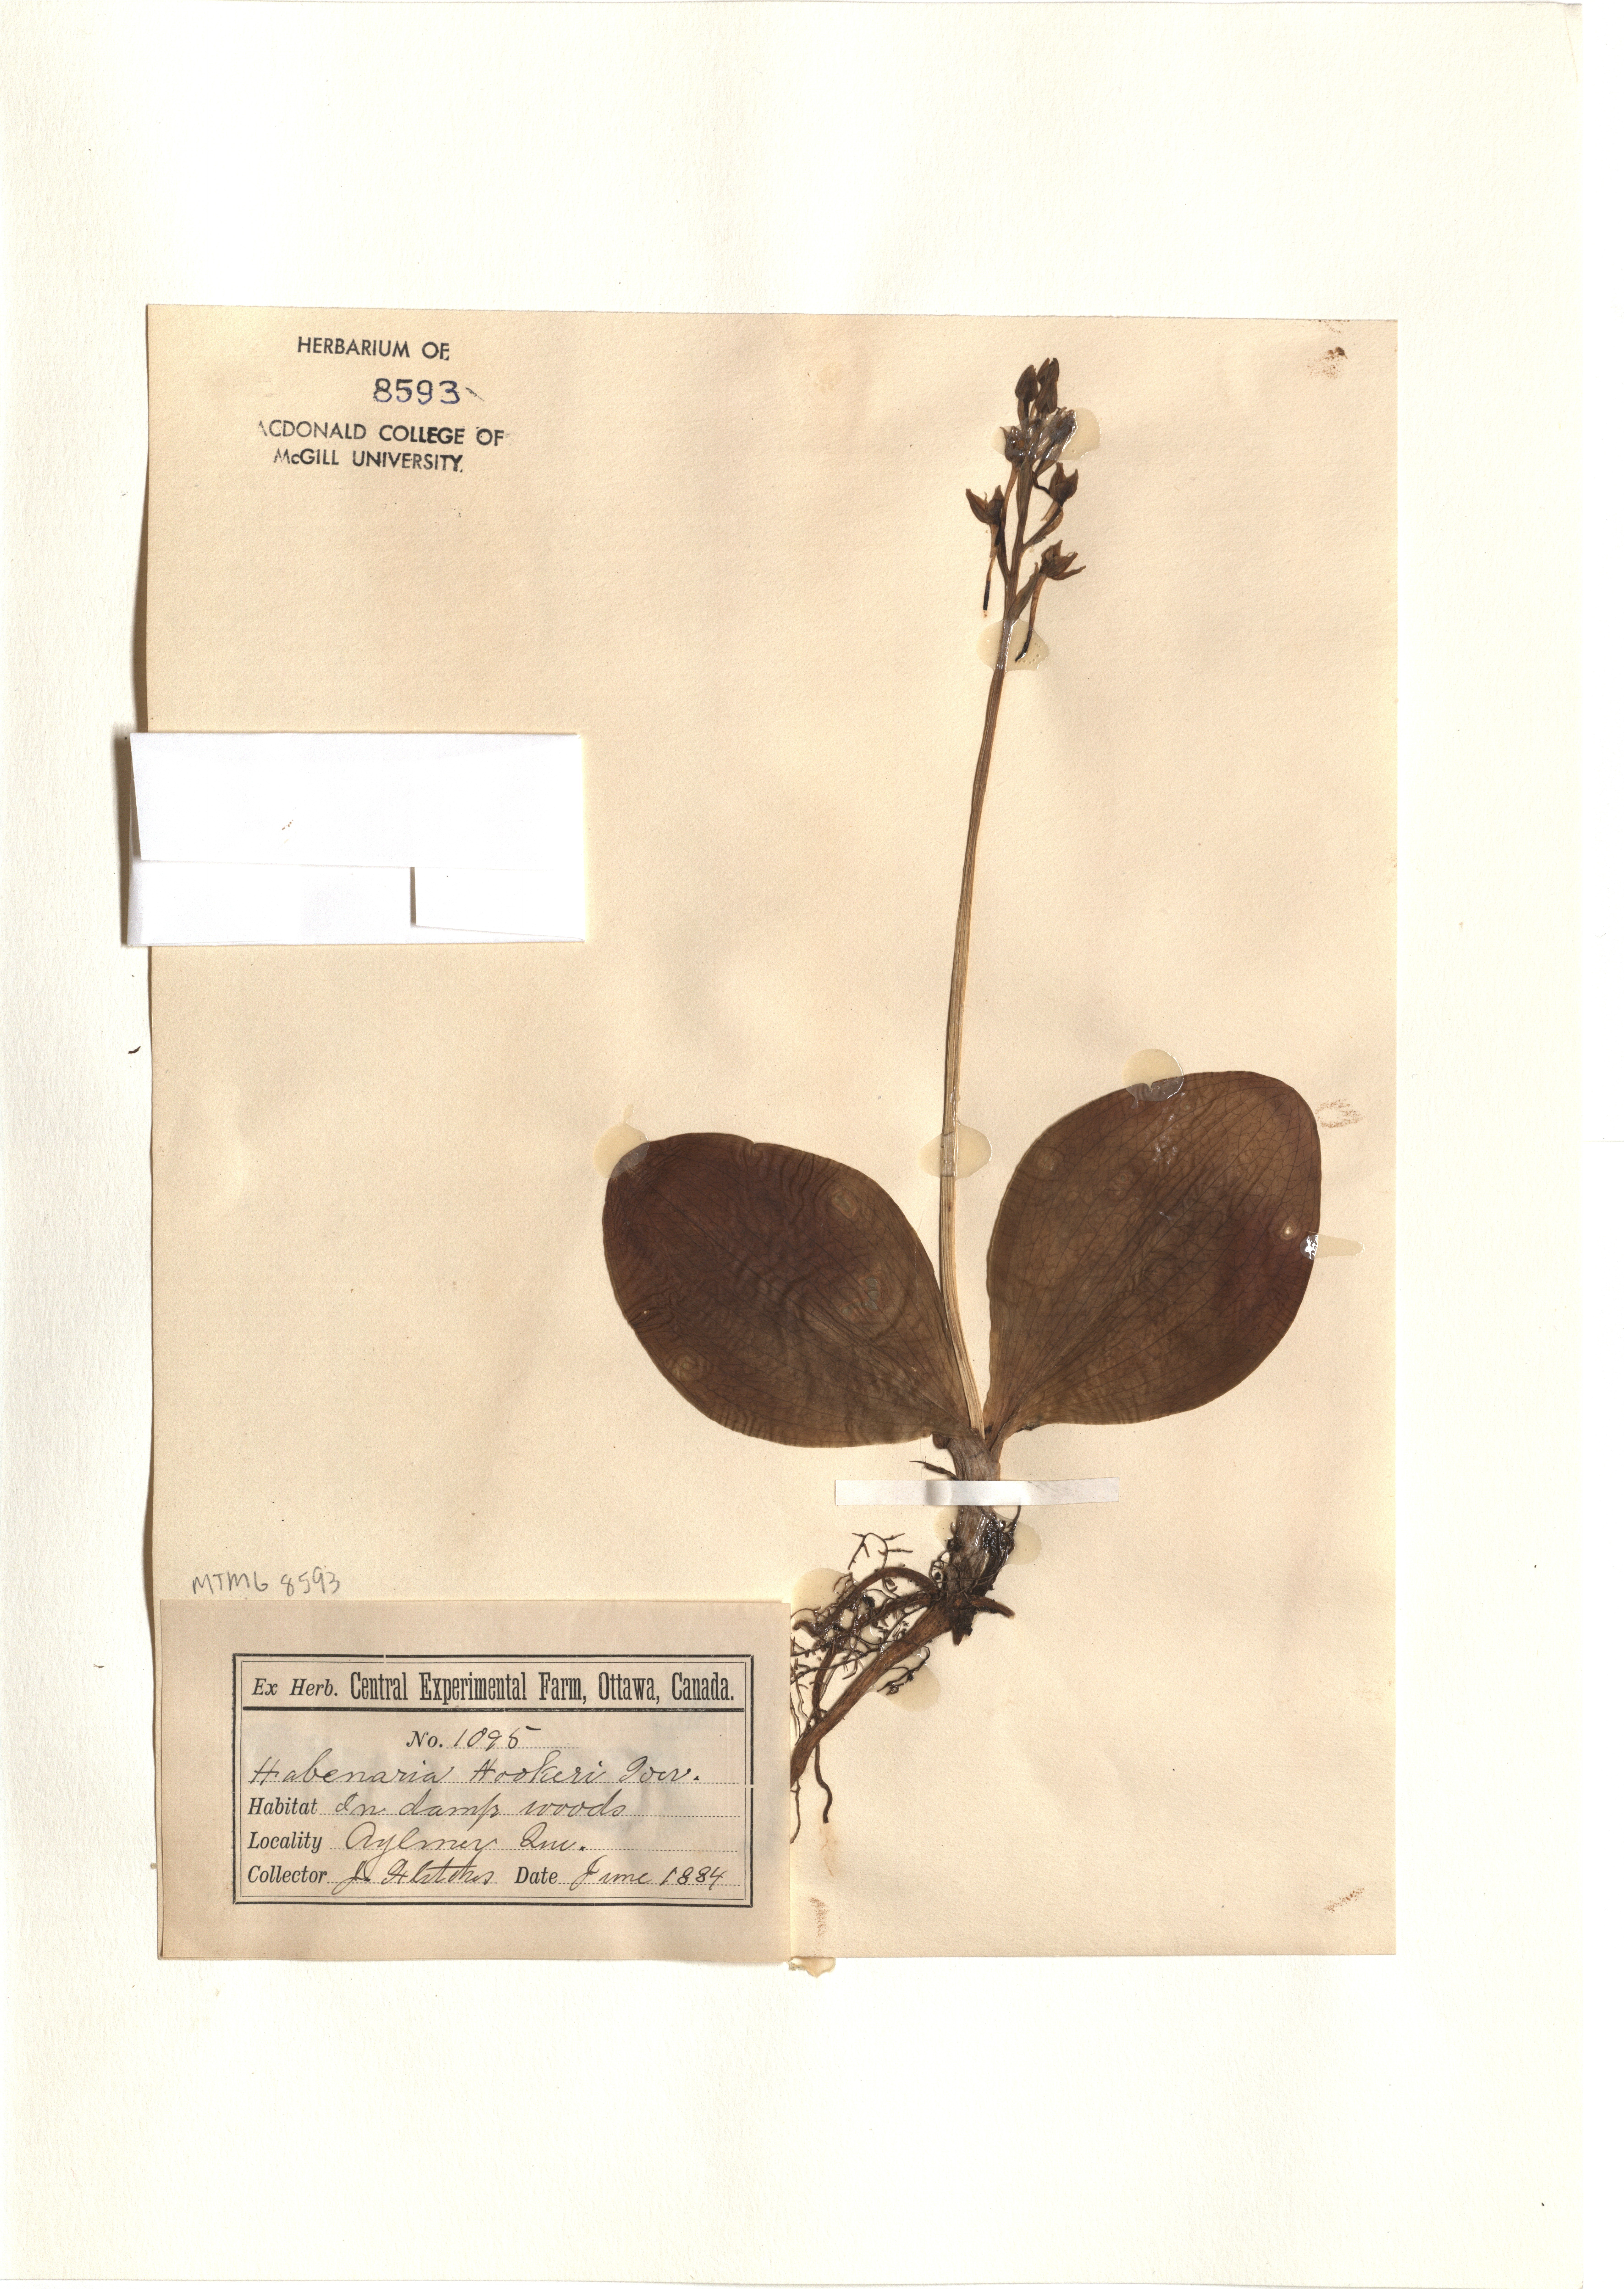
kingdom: Plantae
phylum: Tracheophyta
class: Liliopsida
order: Asparagales
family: Orchidaceae
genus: Platanthera
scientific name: Platanthera grandiflora
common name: Greater purple fringed orchid
